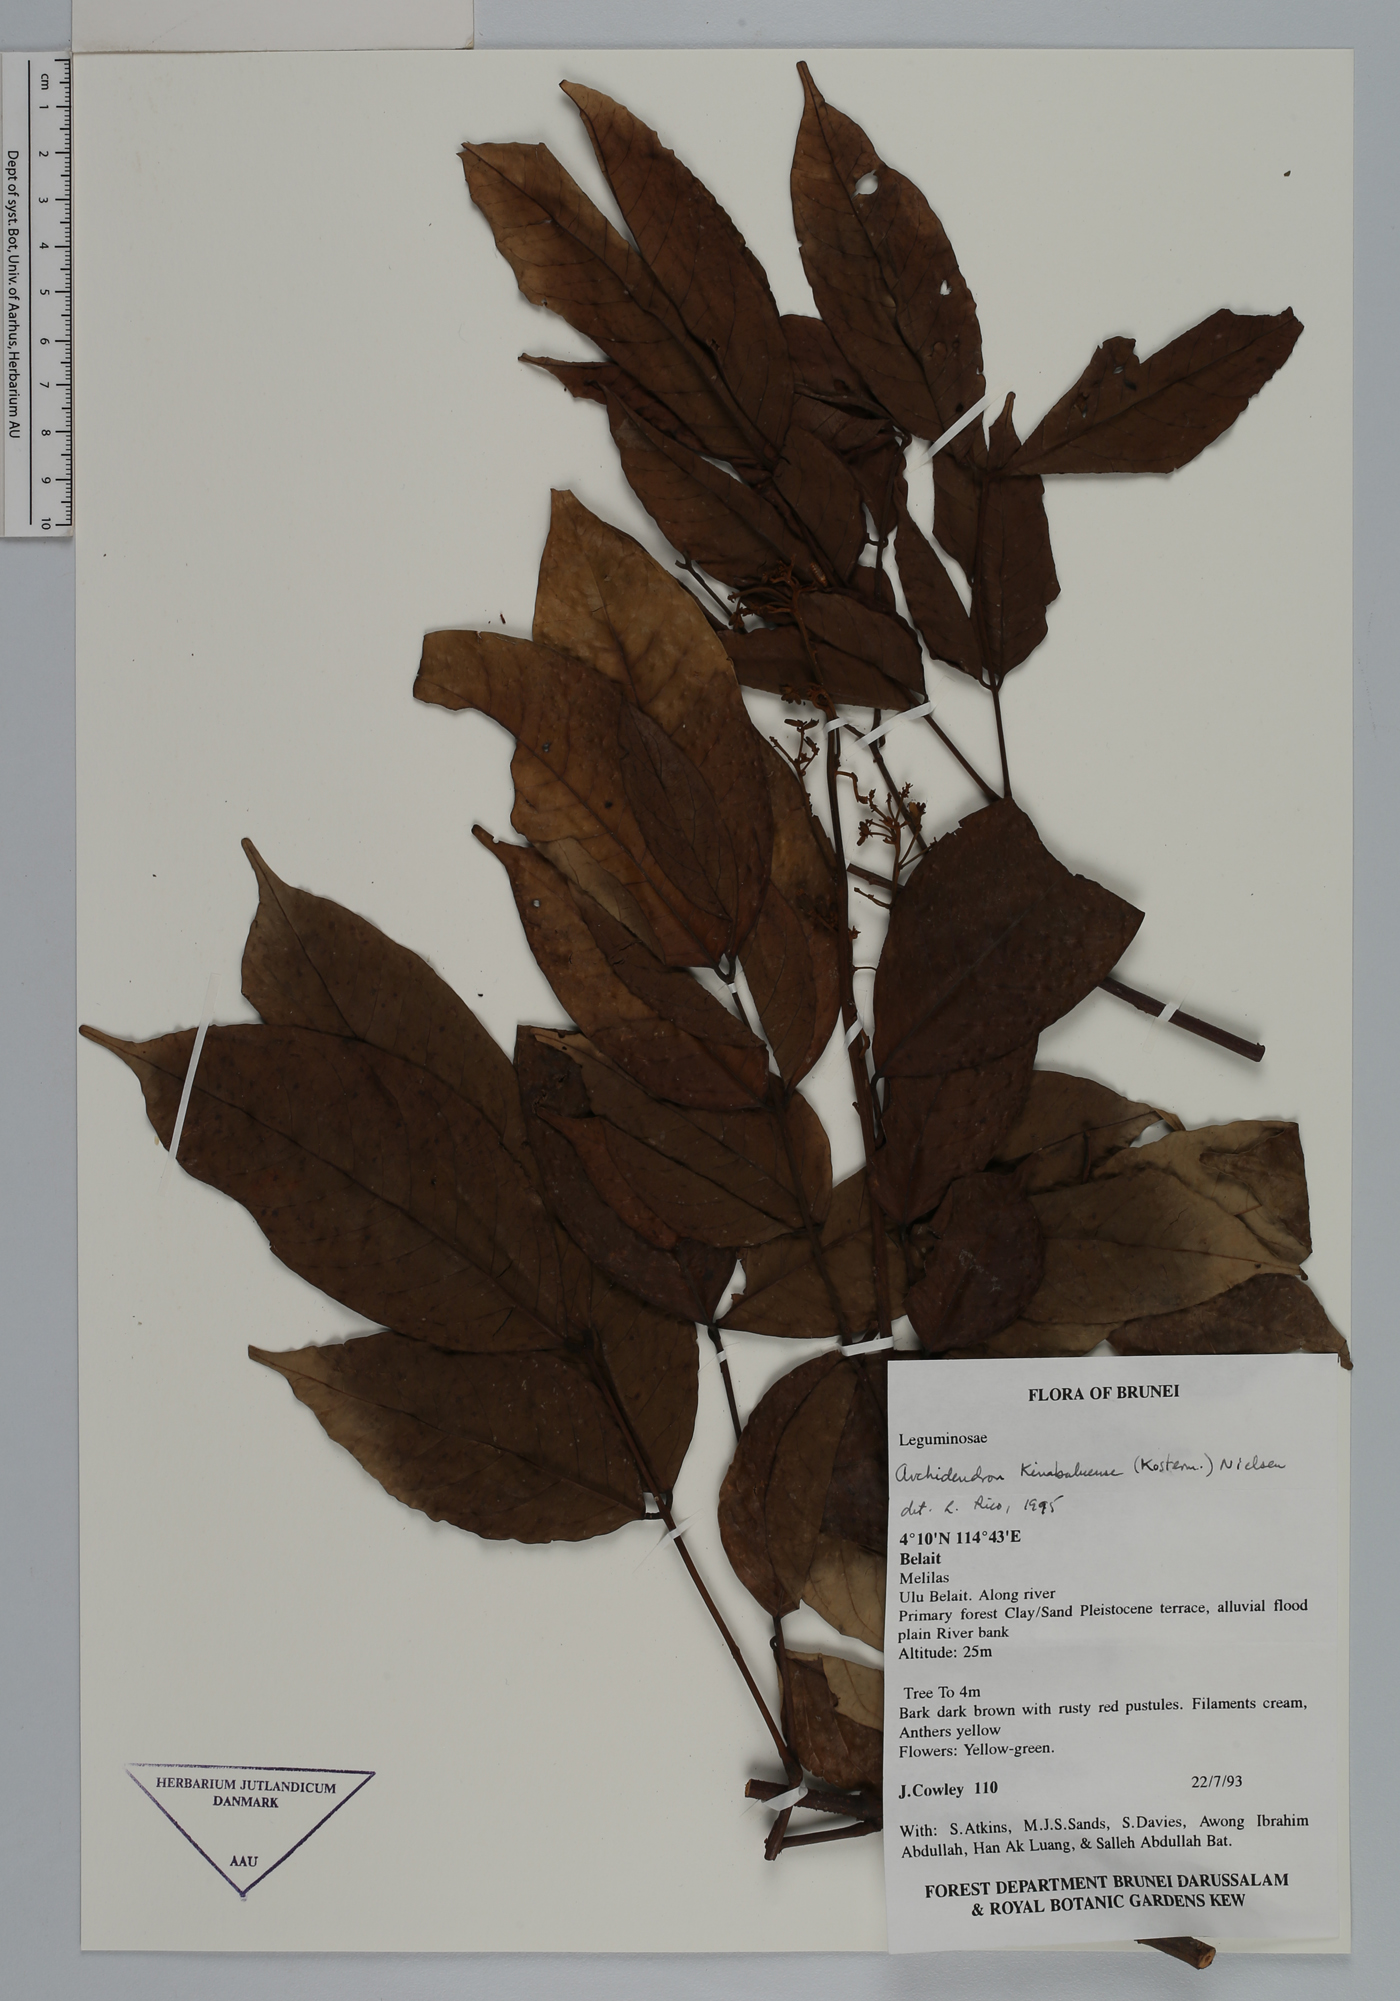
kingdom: Plantae
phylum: Tracheophyta
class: Magnoliopsida
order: Fabales
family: Fabaceae
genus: Archidendron
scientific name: Archidendron kinabaluense
